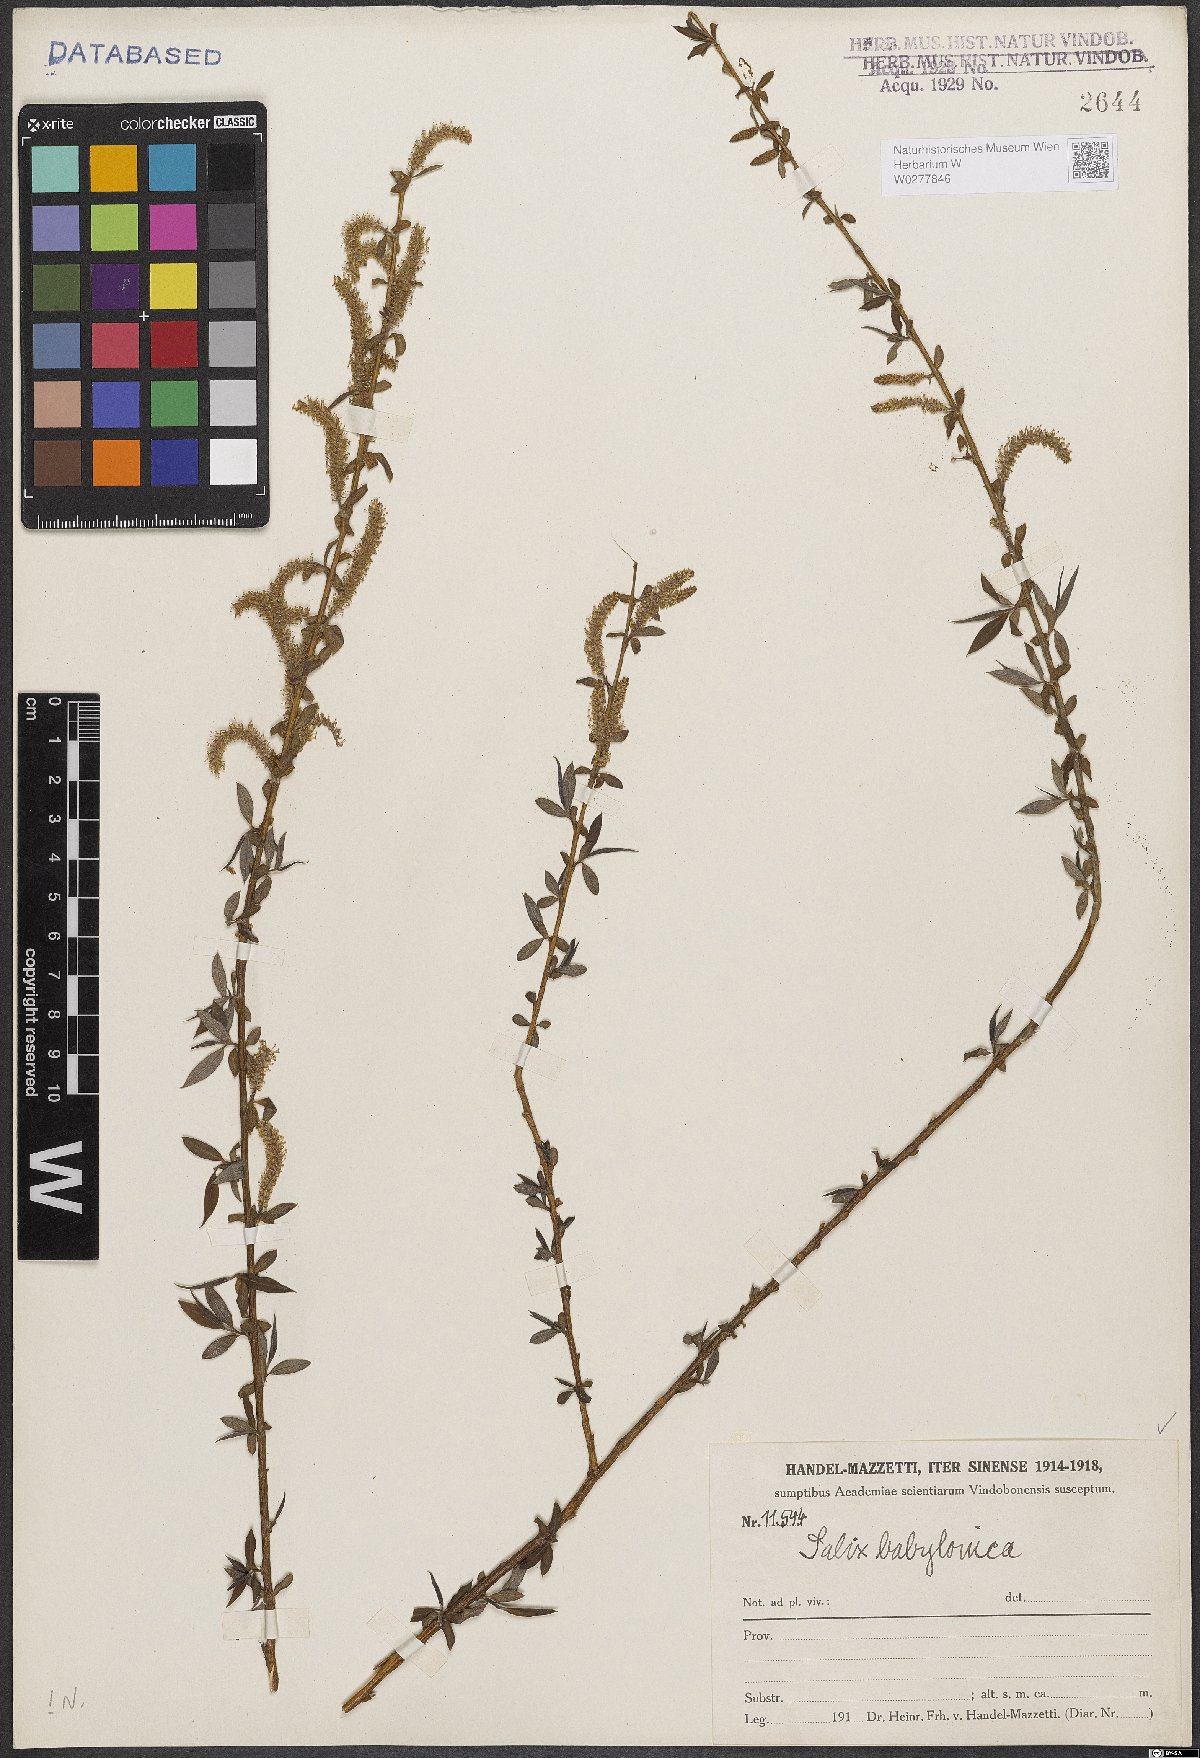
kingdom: Plantae
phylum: Tracheophyta
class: Magnoliopsida
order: Malpighiales
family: Salicaceae
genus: Salix
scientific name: Salix babylonica
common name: Weeping willow
